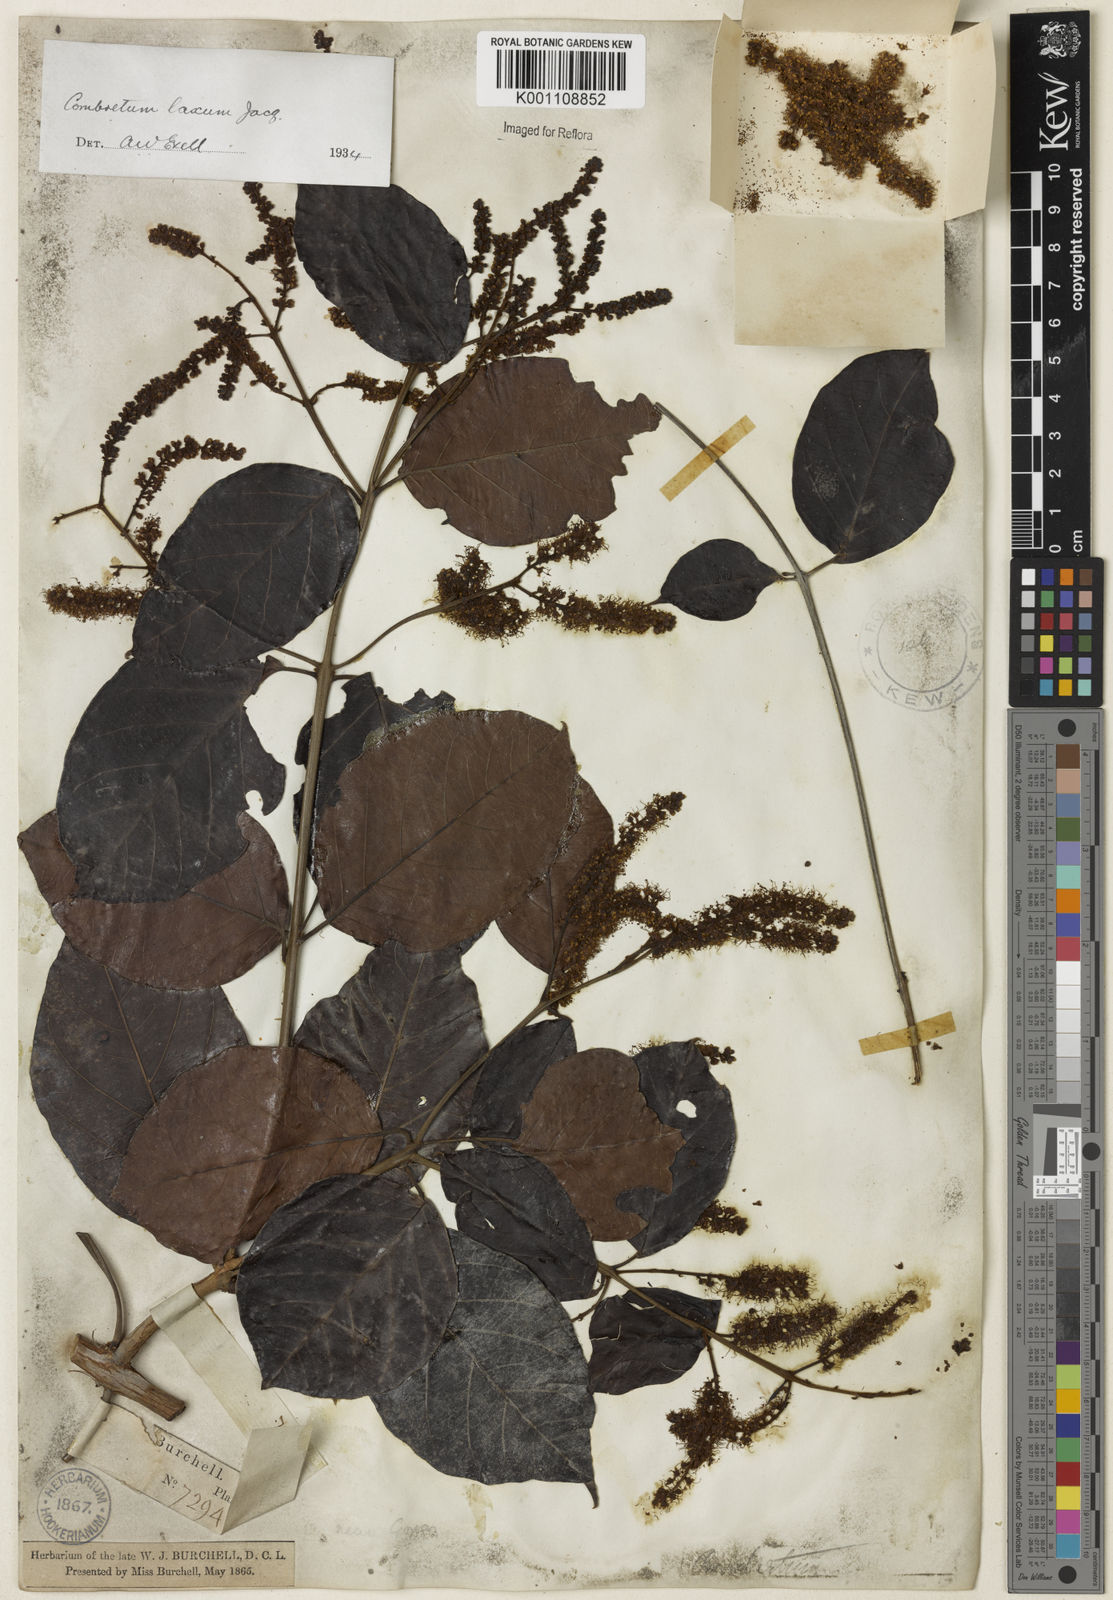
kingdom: Plantae
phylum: Tracheophyta
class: Magnoliopsida
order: Myrtales
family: Combretaceae
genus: Combretum
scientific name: Combretum laxum
